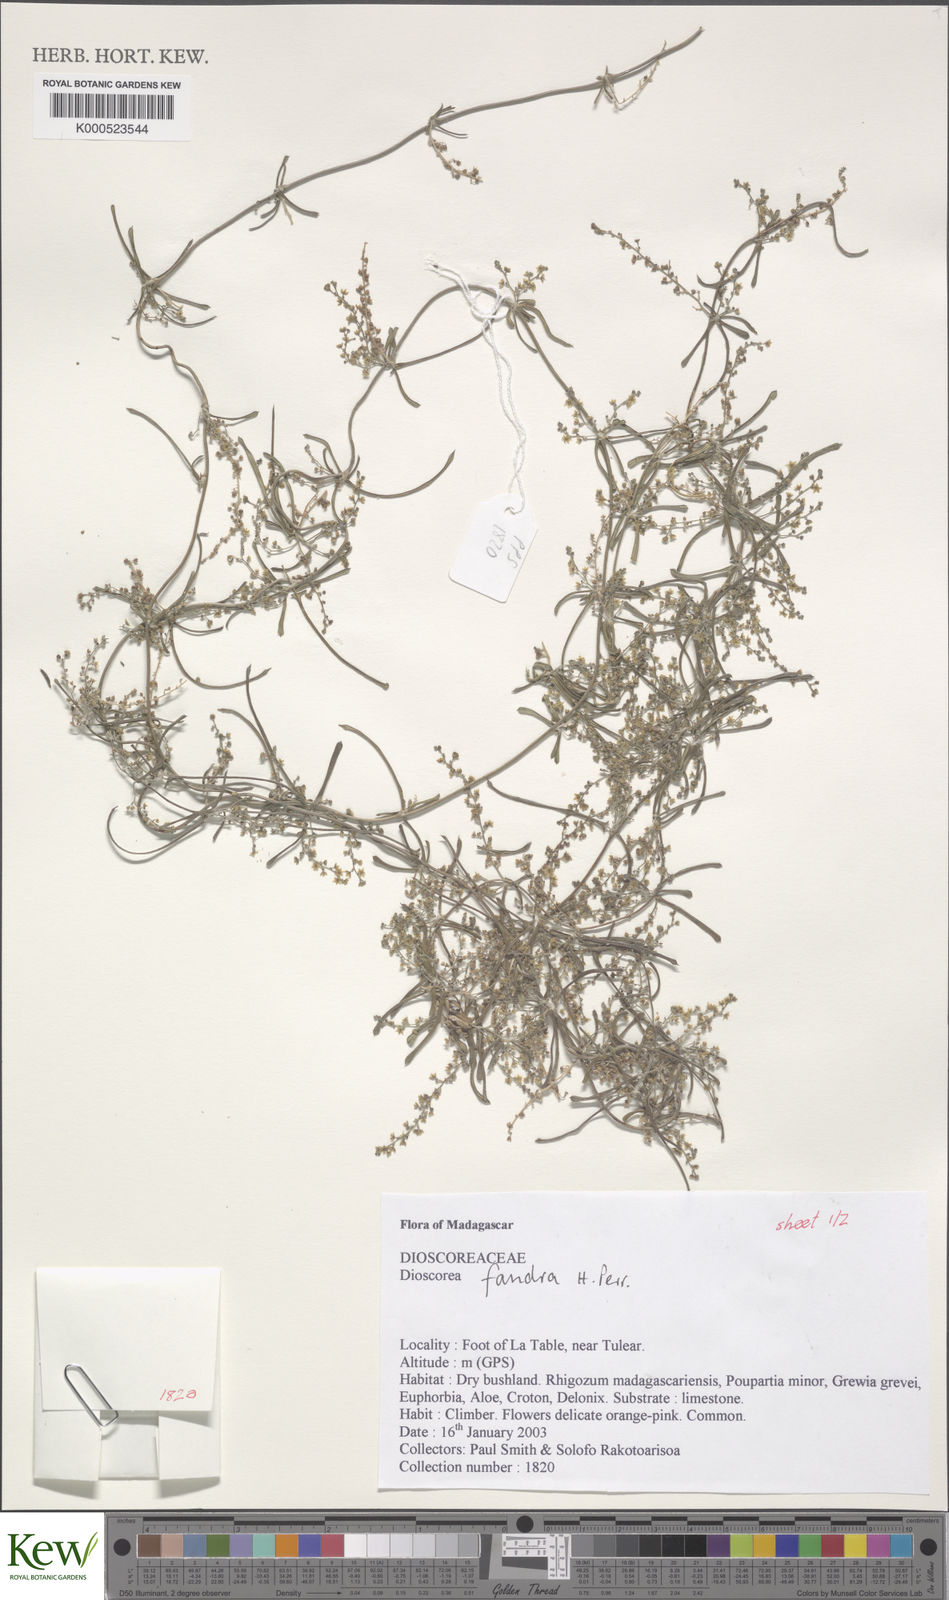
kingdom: Plantae
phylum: Tracheophyta
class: Liliopsida
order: Dioscoreales
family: Dioscoreaceae
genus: Dioscorea
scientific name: Dioscorea fandra
